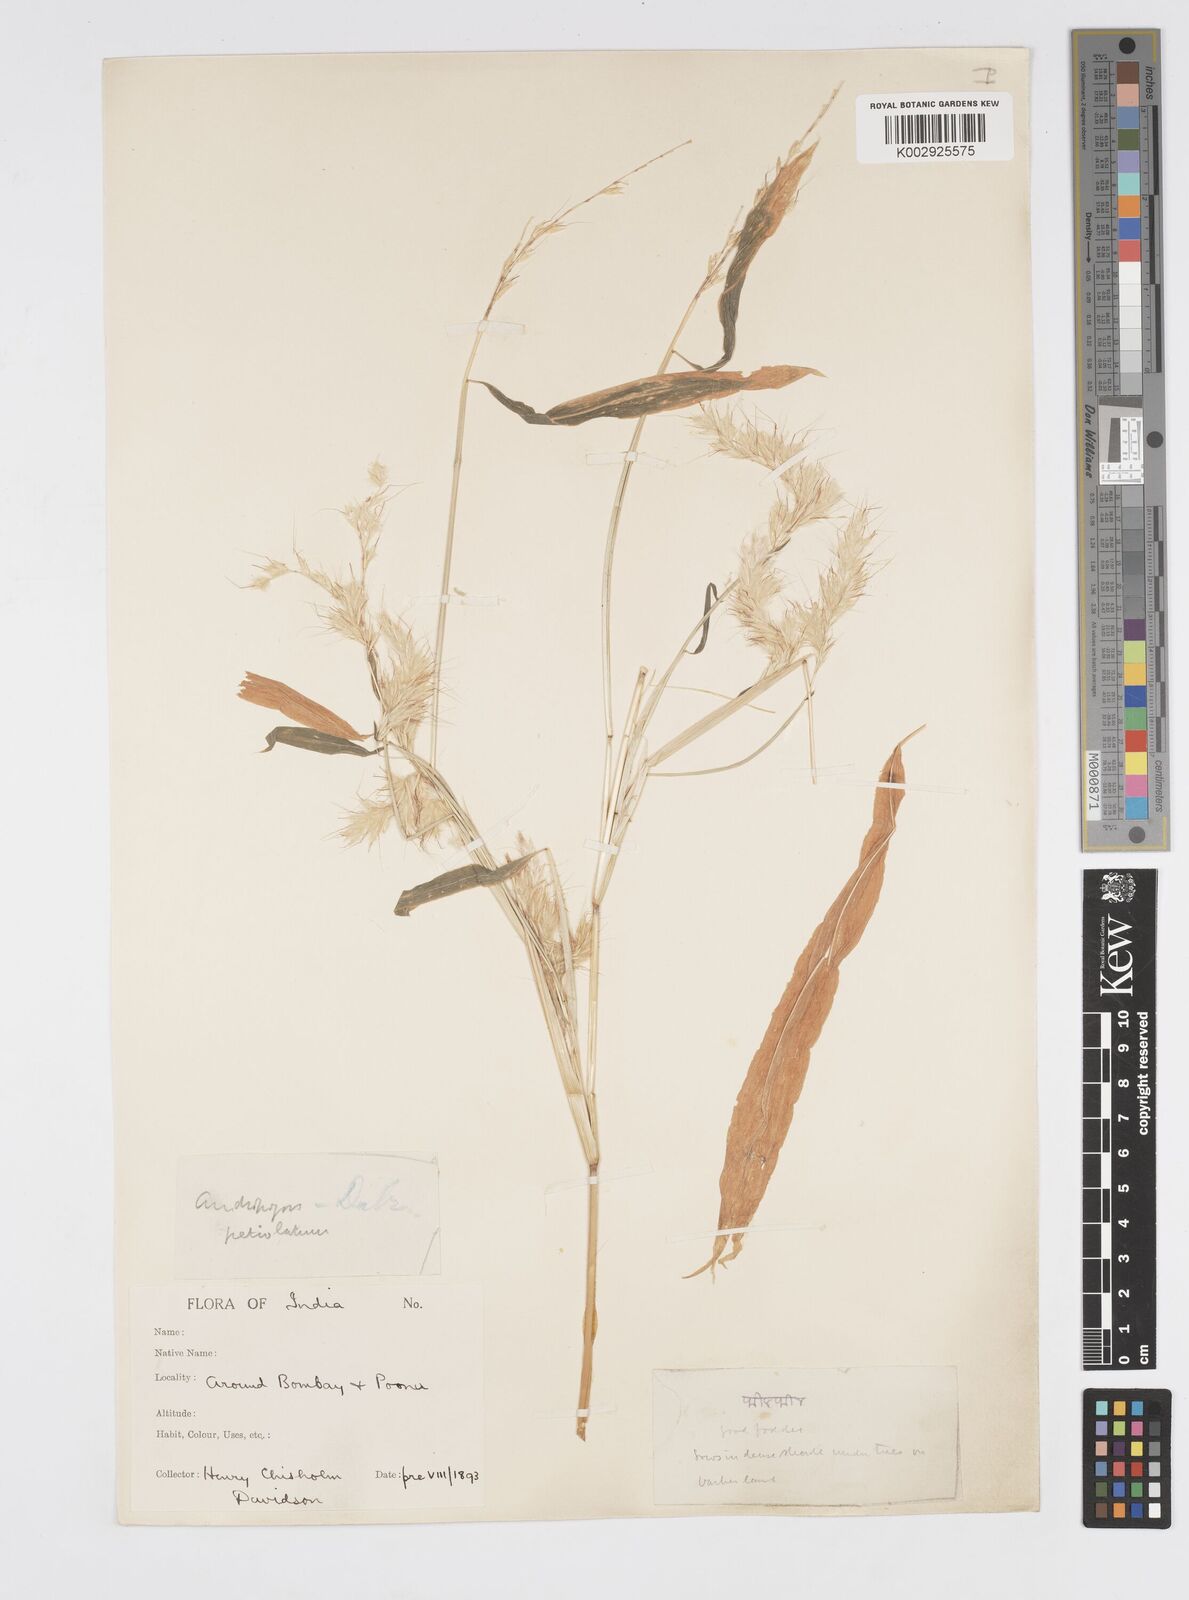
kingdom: Plantae
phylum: Tracheophyta
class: Liliopsida
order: Poales
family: Poaceae
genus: Spodiopogon
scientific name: Spodiopogon rhizophorus
